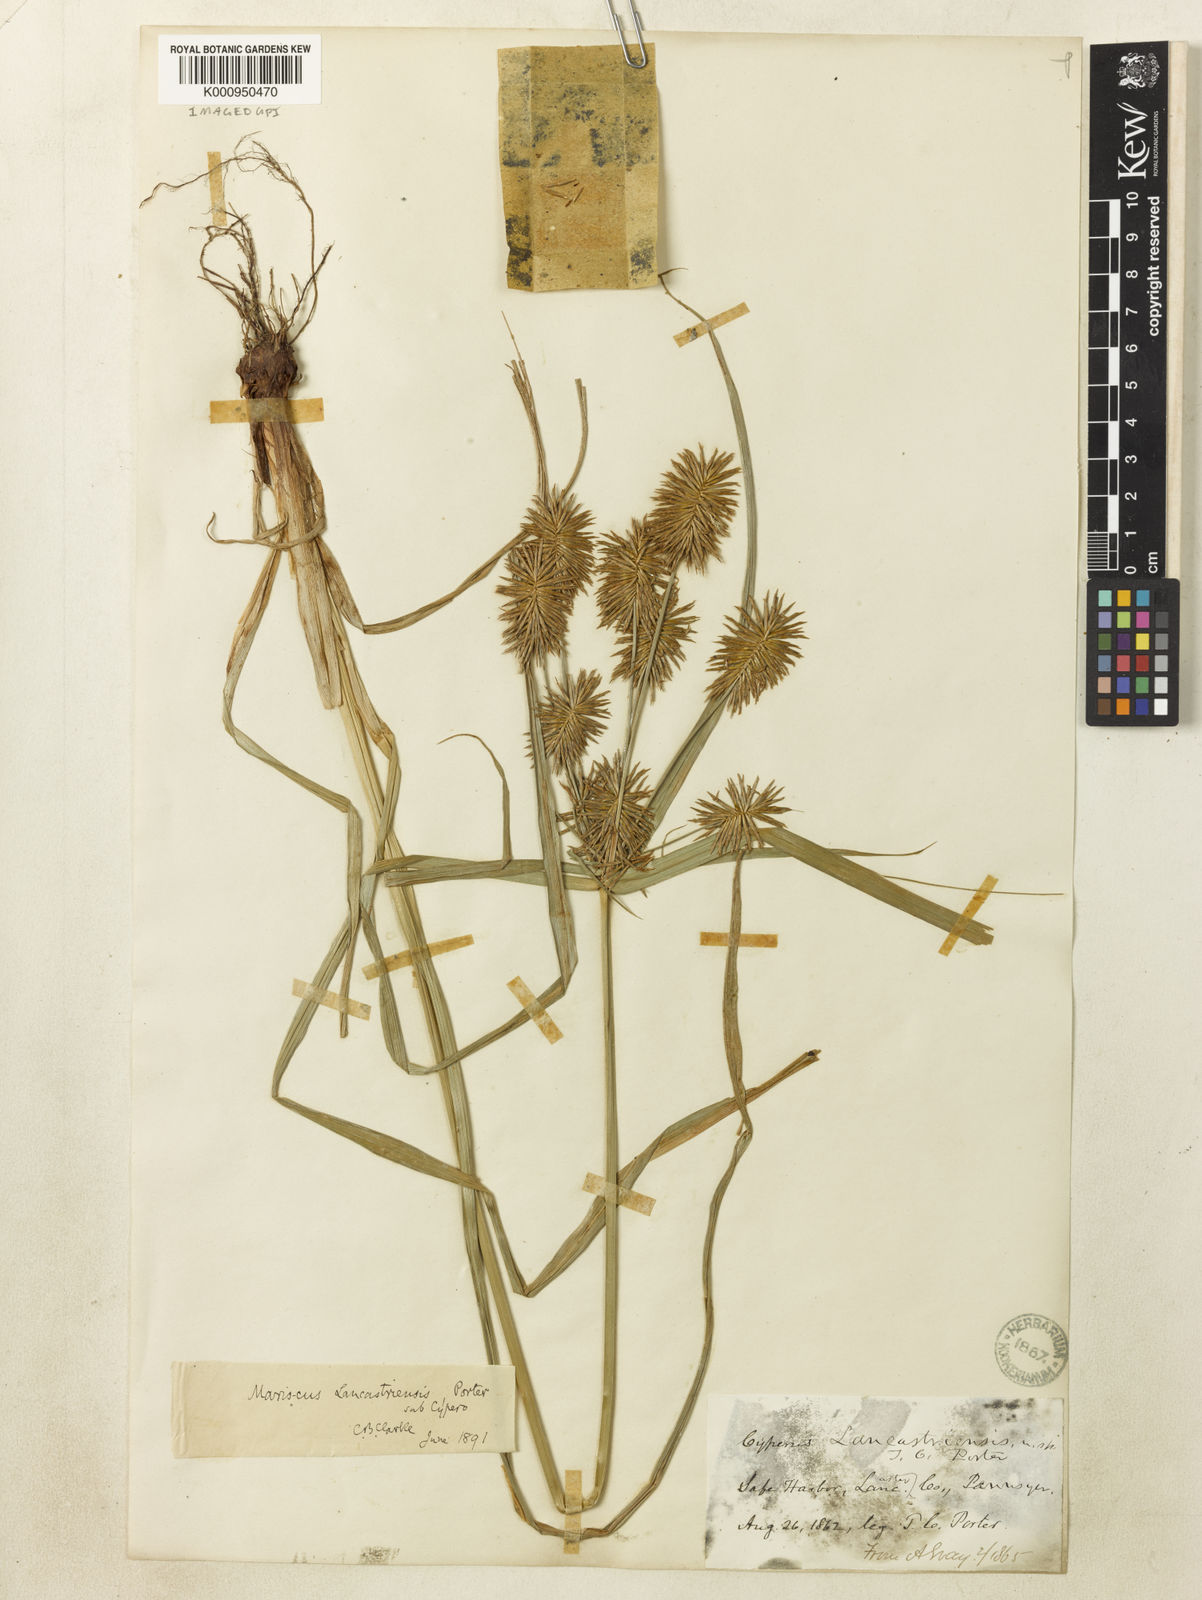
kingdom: Plantae
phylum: Tracheophyta
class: Liliopsida
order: Poales
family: Cyperaceae
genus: Cyperus
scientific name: Cyperus refractus
